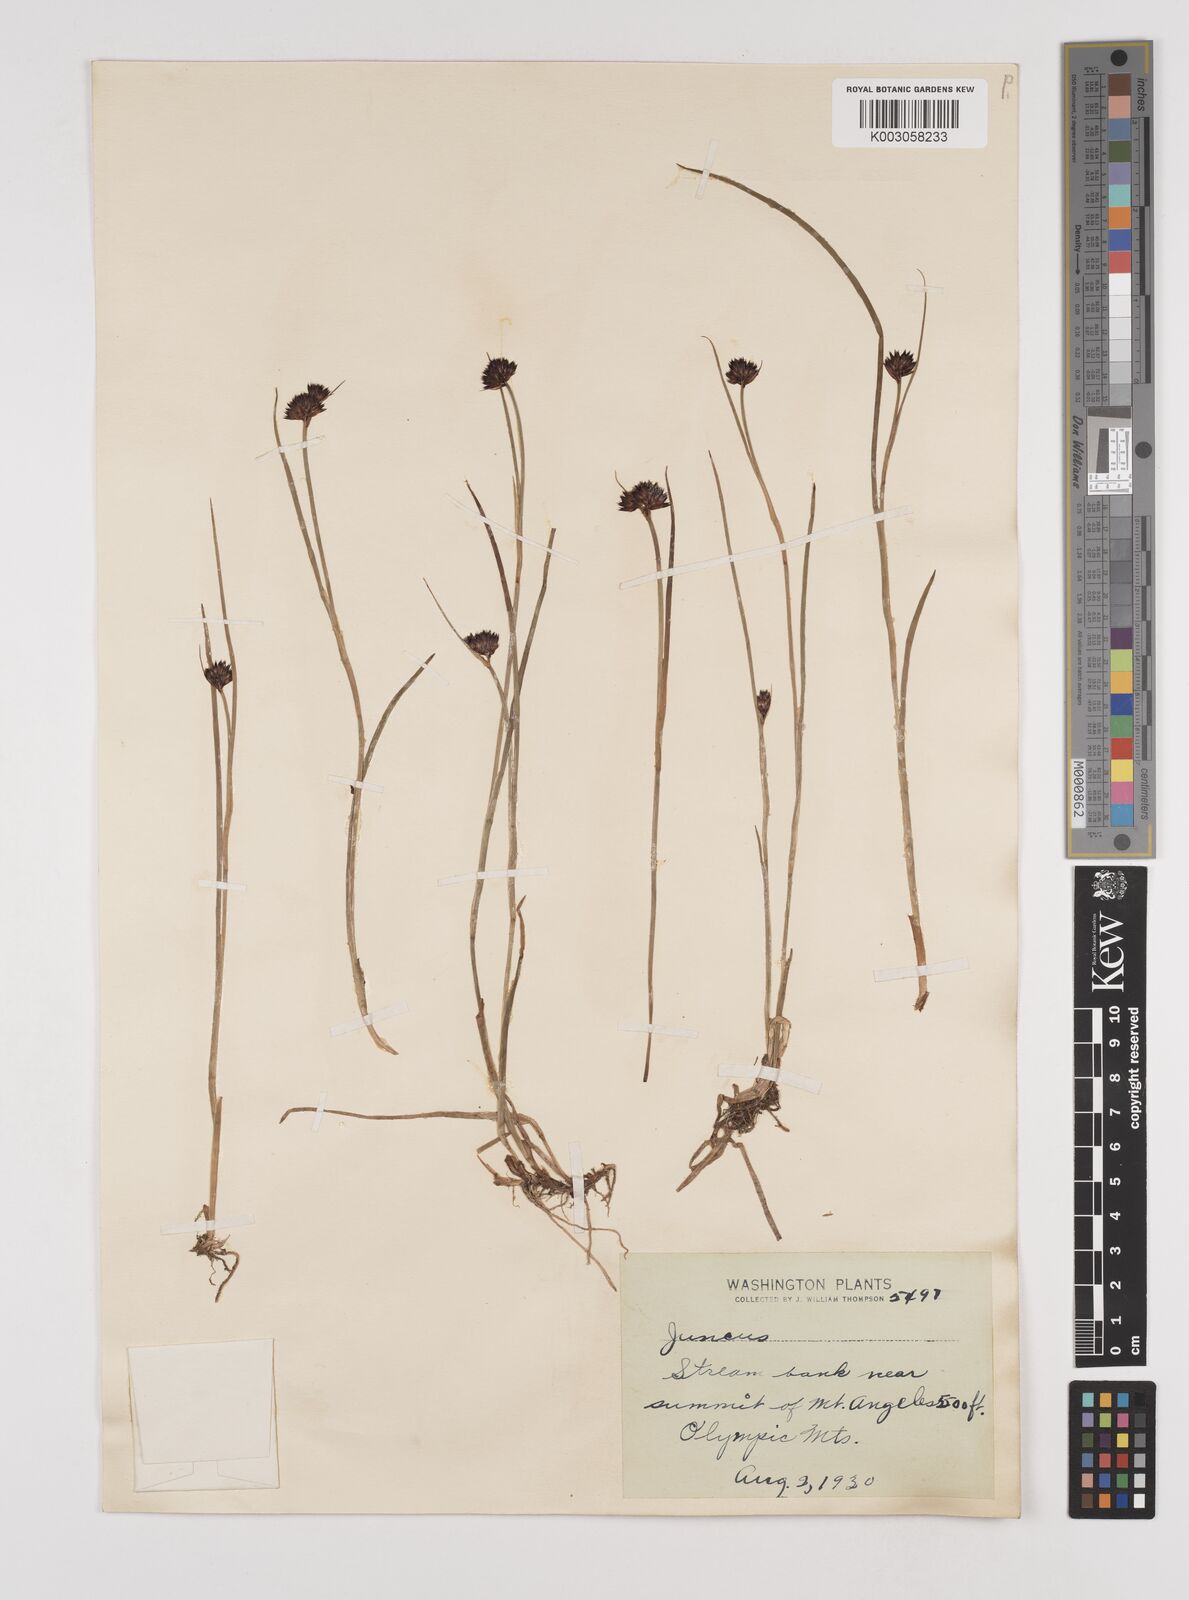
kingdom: Plantae
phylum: Tracheophyta
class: Liliopsida
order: Poales
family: Juncaceae
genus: Juncus
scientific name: Juncus
